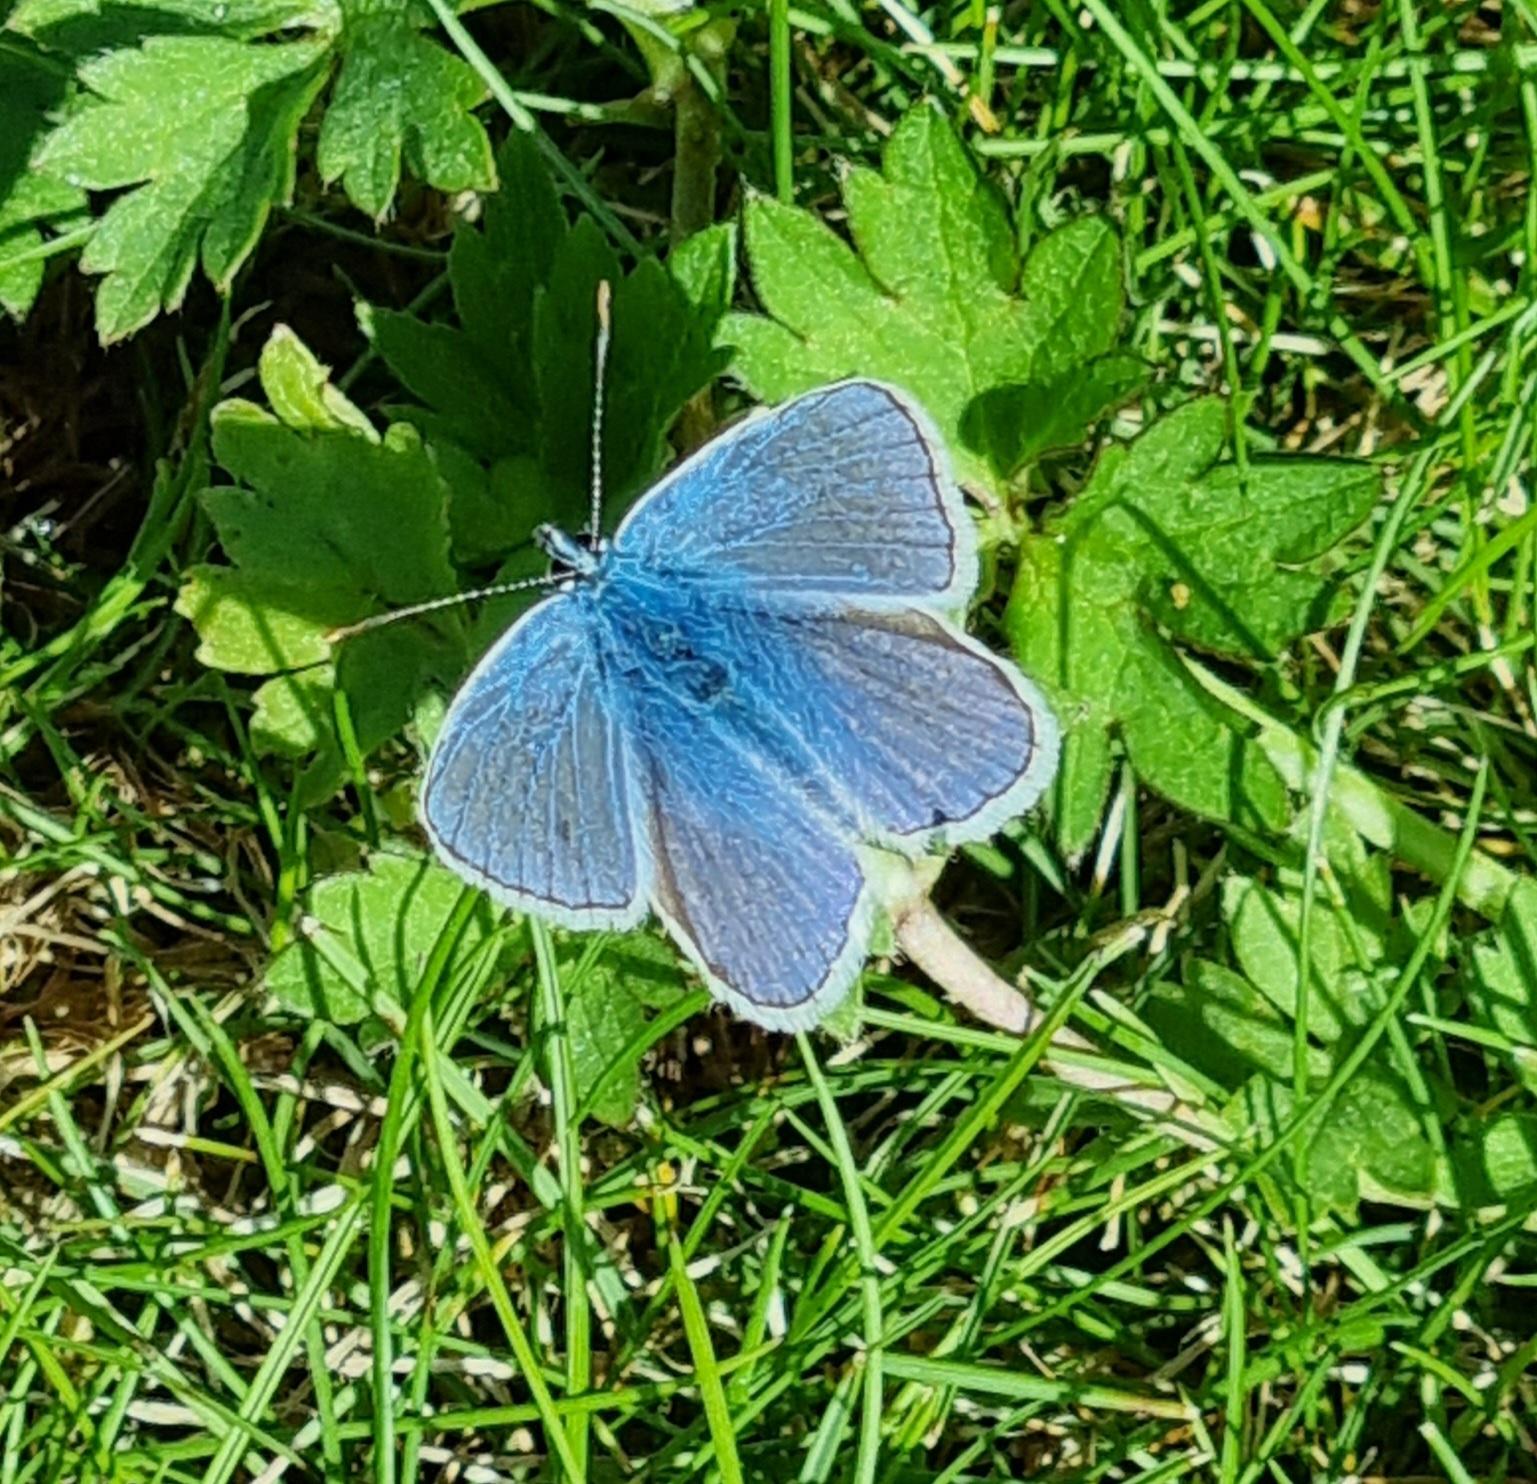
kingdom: Animalia
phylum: Arthropoda
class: Insecta
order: Lepidoptera
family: Lycaenidae
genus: Polyommatus
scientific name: Polyommatus icarus
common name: Almindelig blåfugl
